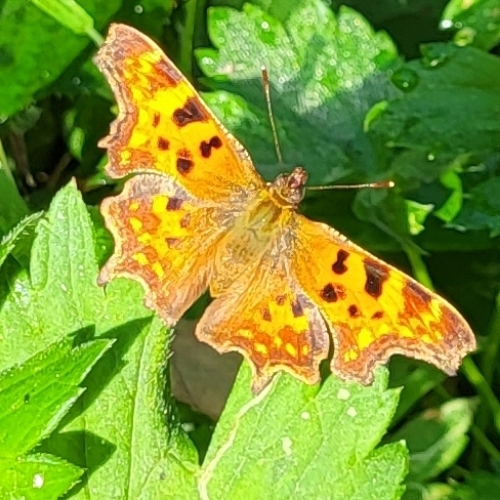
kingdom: Animalia
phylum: Arthropoda
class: Insecta
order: Lepidoptera
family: Nymphalidae
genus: Polygonia
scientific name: Polygonia c-album
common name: Det hvide C
